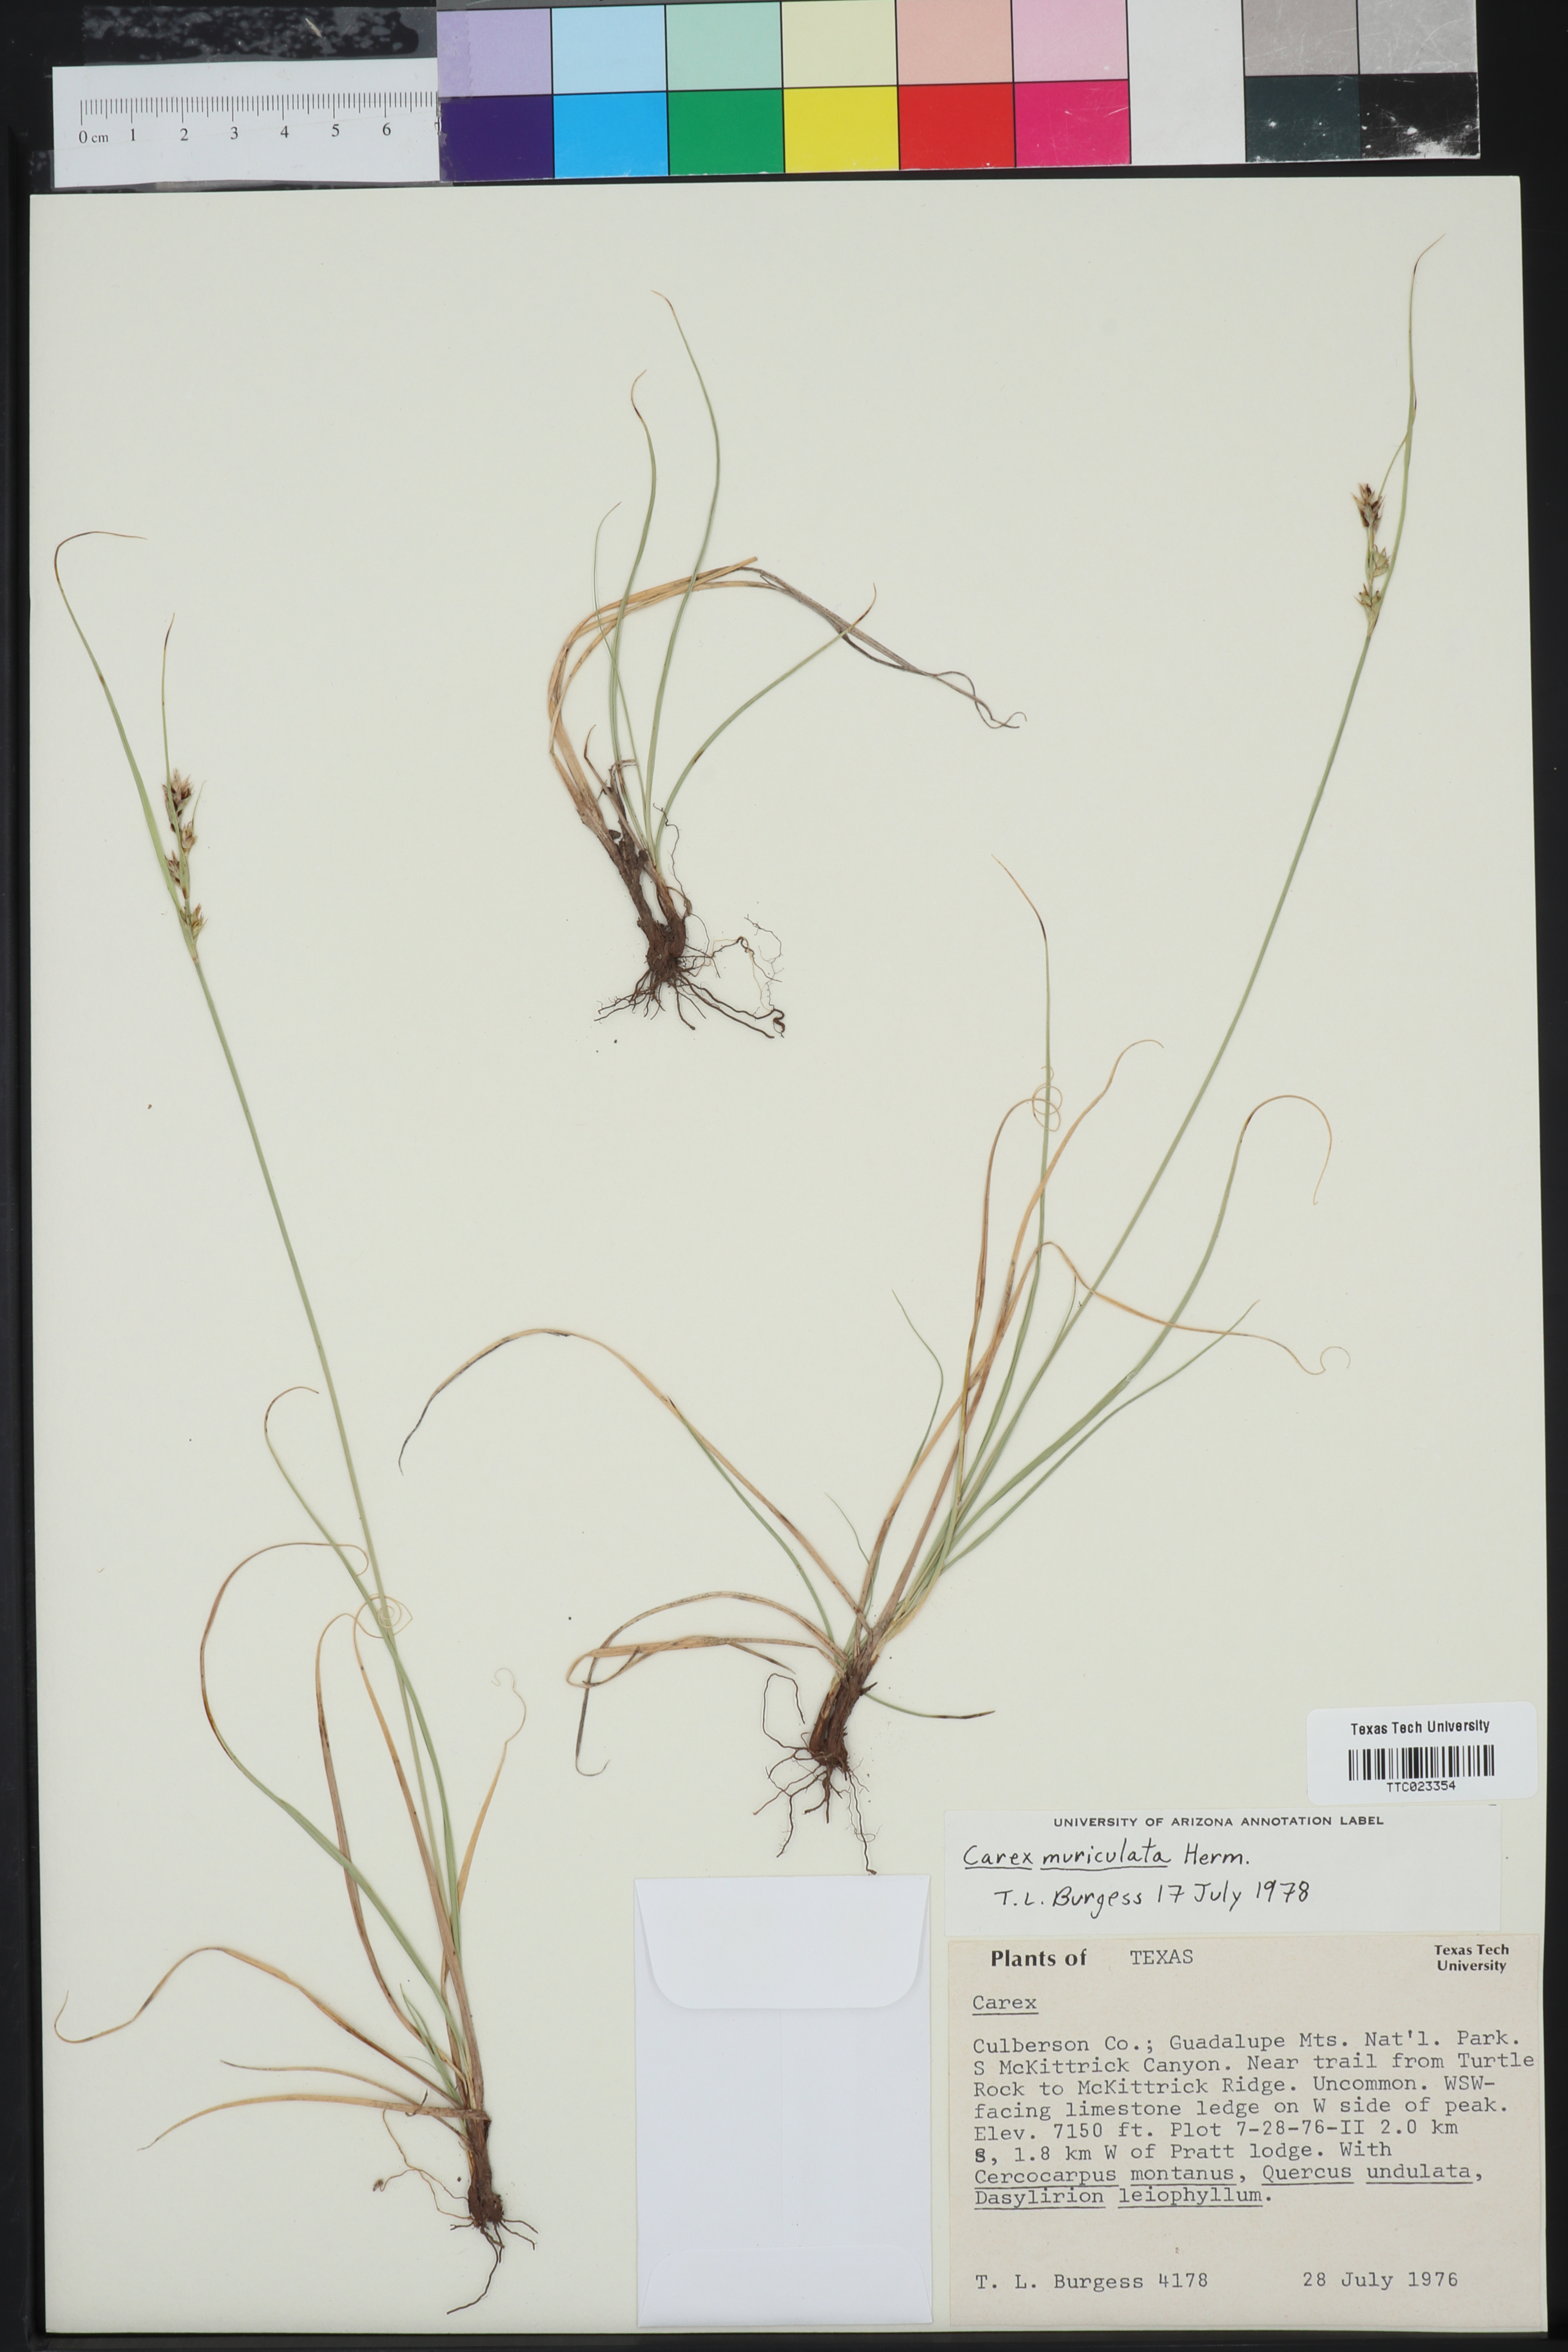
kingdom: Plantae
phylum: Tracheophyta
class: Liliopsida
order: Poales
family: Cyperaceae
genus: Carex
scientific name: Carex muriculata
